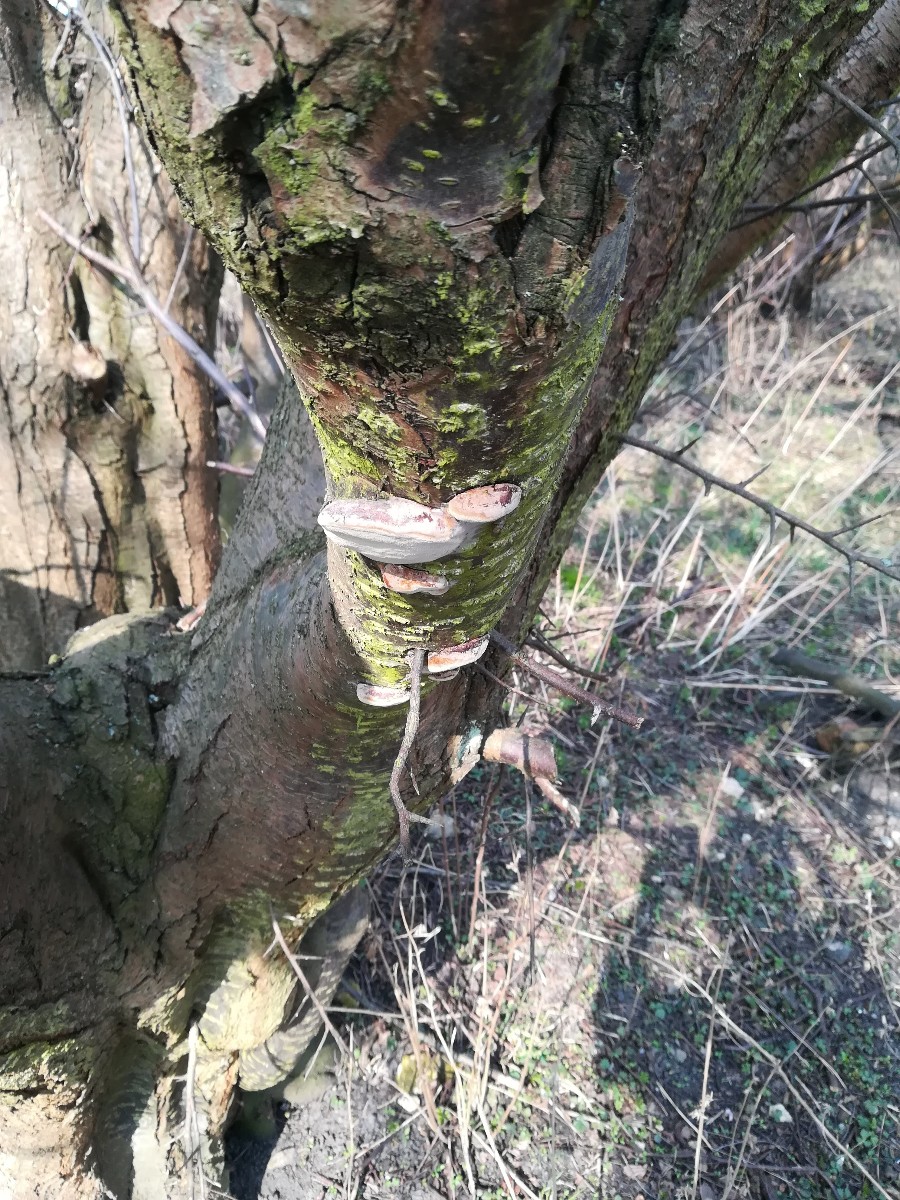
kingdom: Fungi
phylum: Basidiomycota
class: Agaricomycetes
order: Hymenochaetales
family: Hymenochaetaceae
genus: Phellinus
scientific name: Phellinus pomaceus
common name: blomme-ildporesvamp
